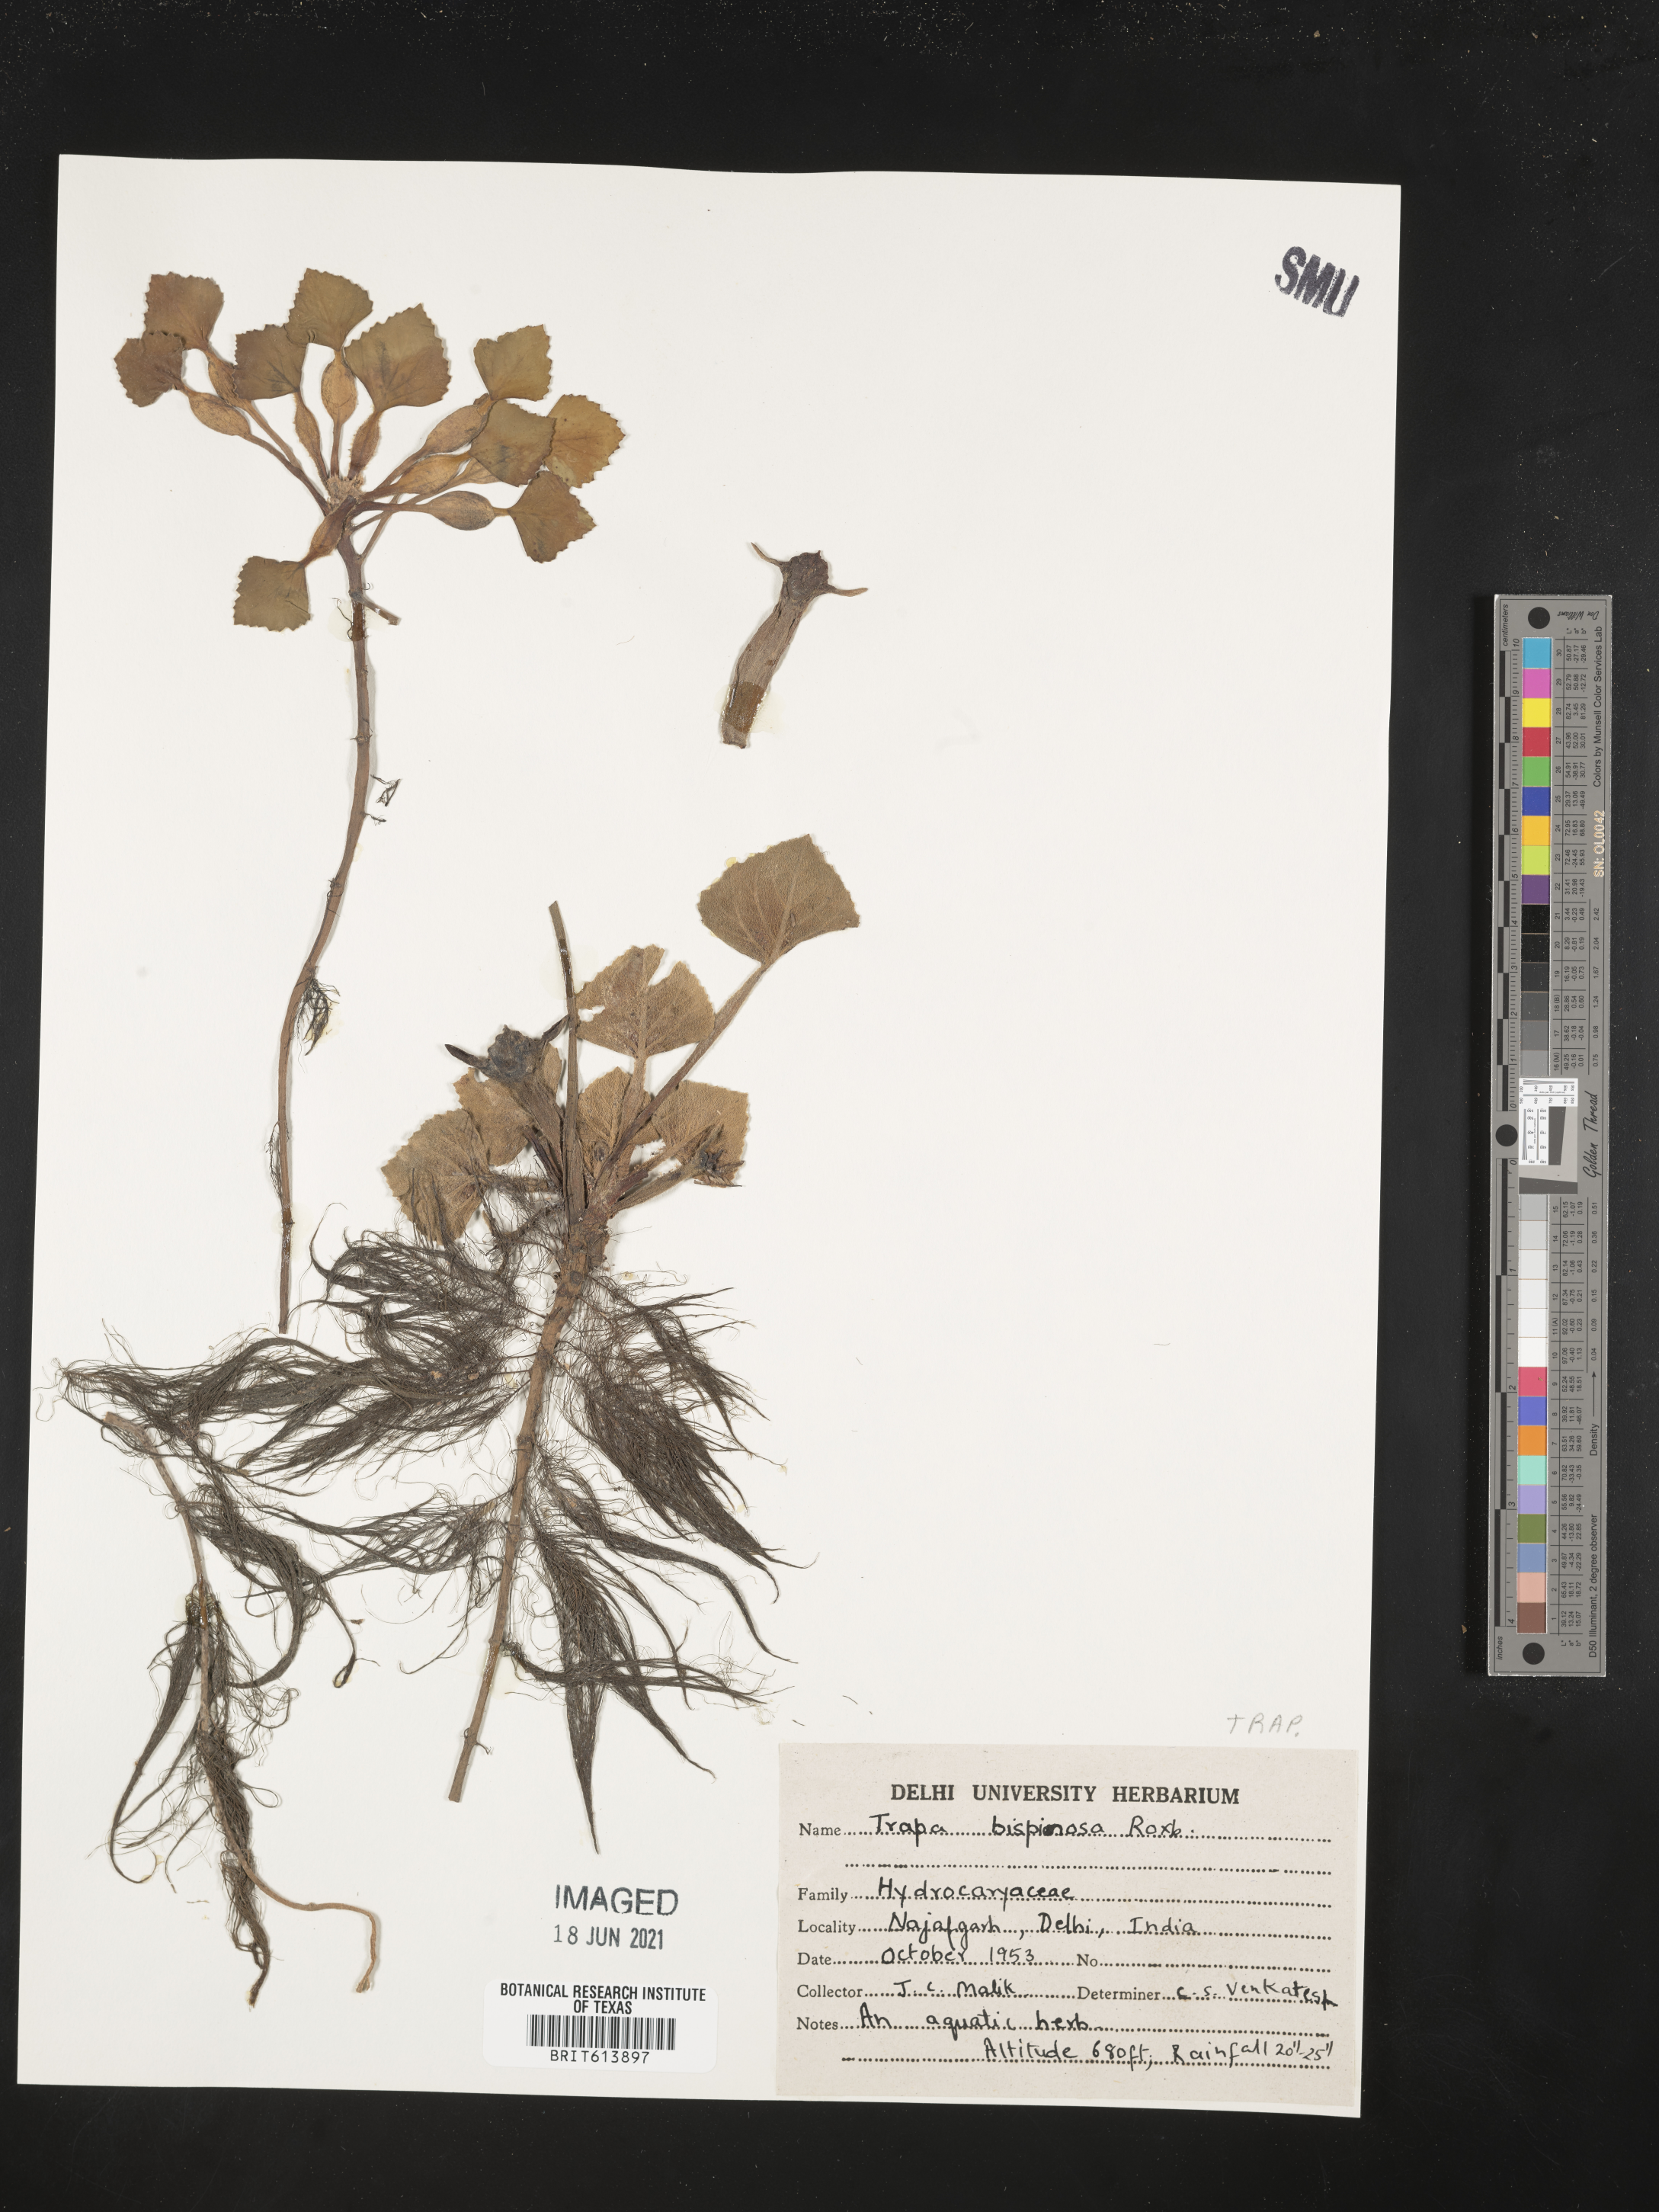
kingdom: Plantae
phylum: Tracheophyta
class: Magnoliopsida
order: Myrtales
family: Lythraceae
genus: Trapa
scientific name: Trapa natans
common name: Water chestnut
